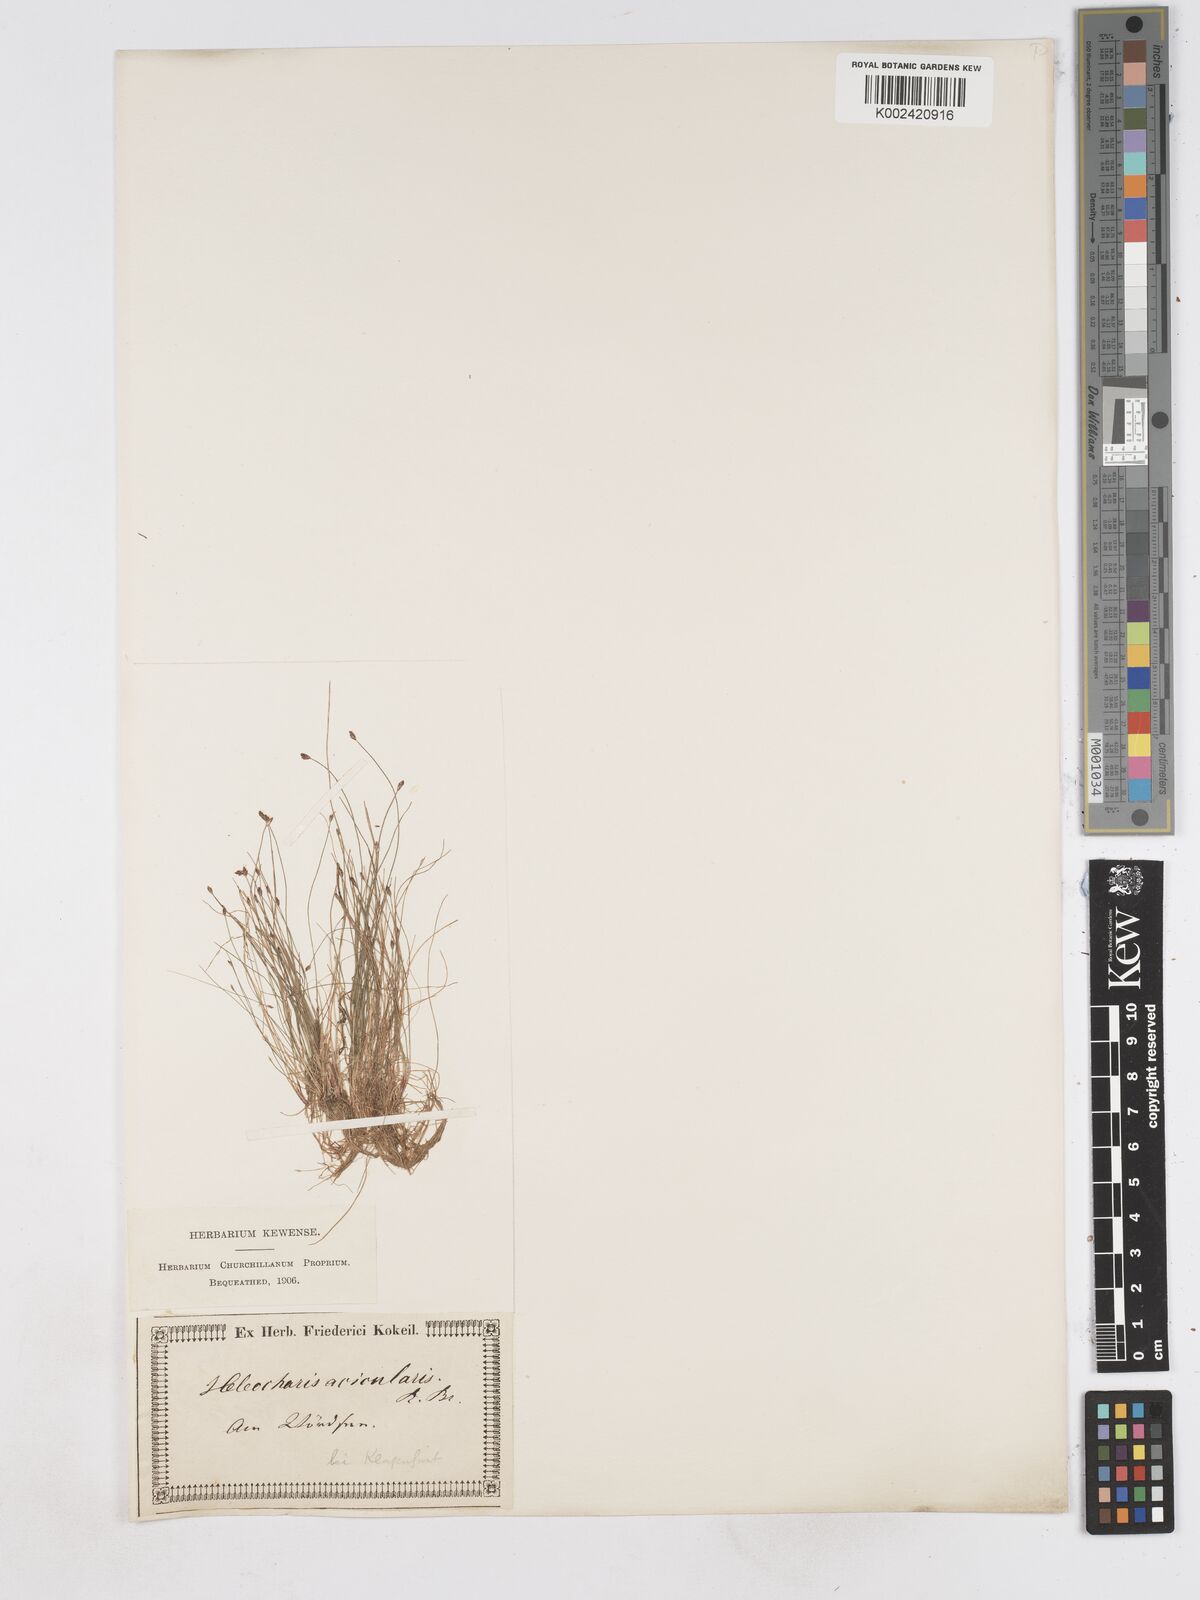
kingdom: Plantae
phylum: Tracheophyta
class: Liliopsida
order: Poales
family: Cyperaceae
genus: Eleocharis
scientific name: Eleocharis acicularis
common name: Needle spike-rush
